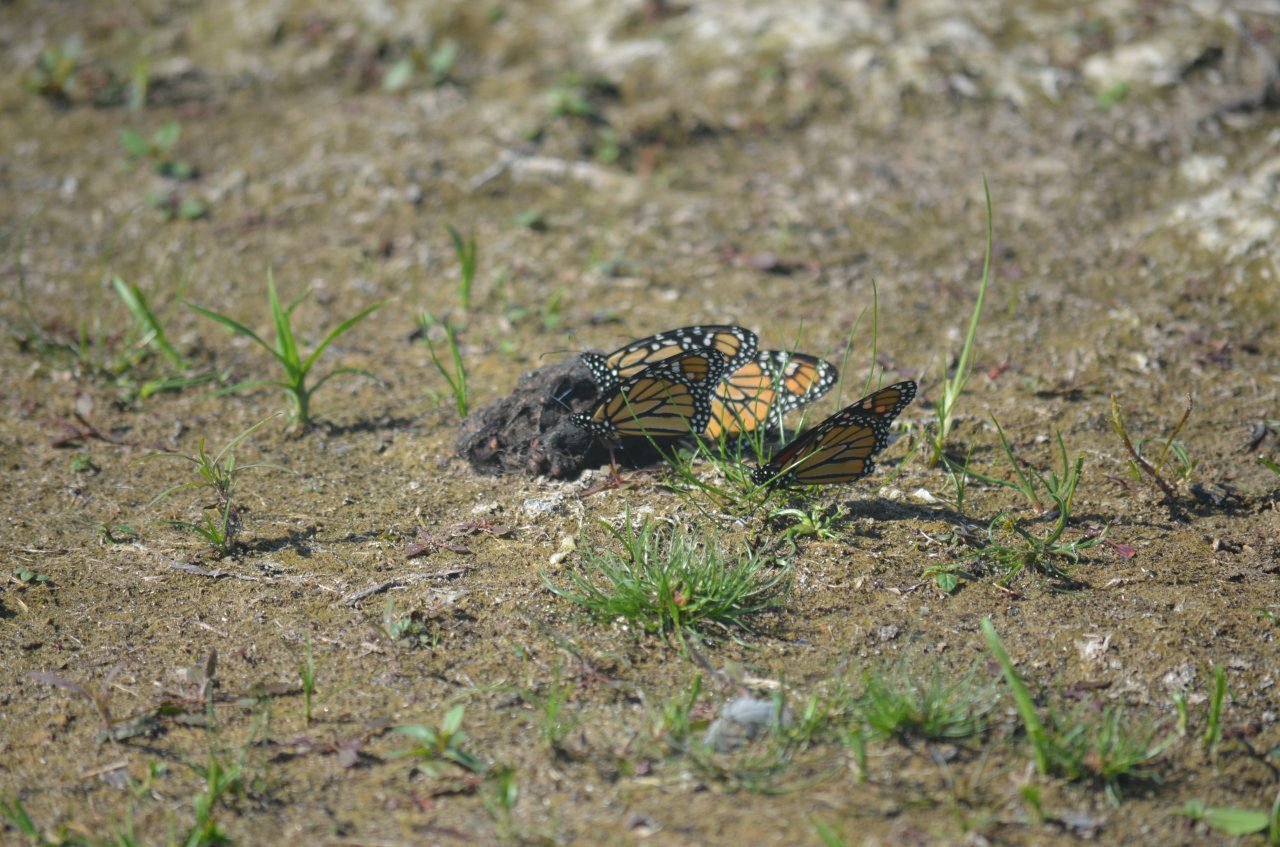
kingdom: Animalia
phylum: Arthropoda
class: Insecta
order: Lepidoptera
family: Nymphalidae
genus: Danaus
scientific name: Danaus plexippus
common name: Monarch
